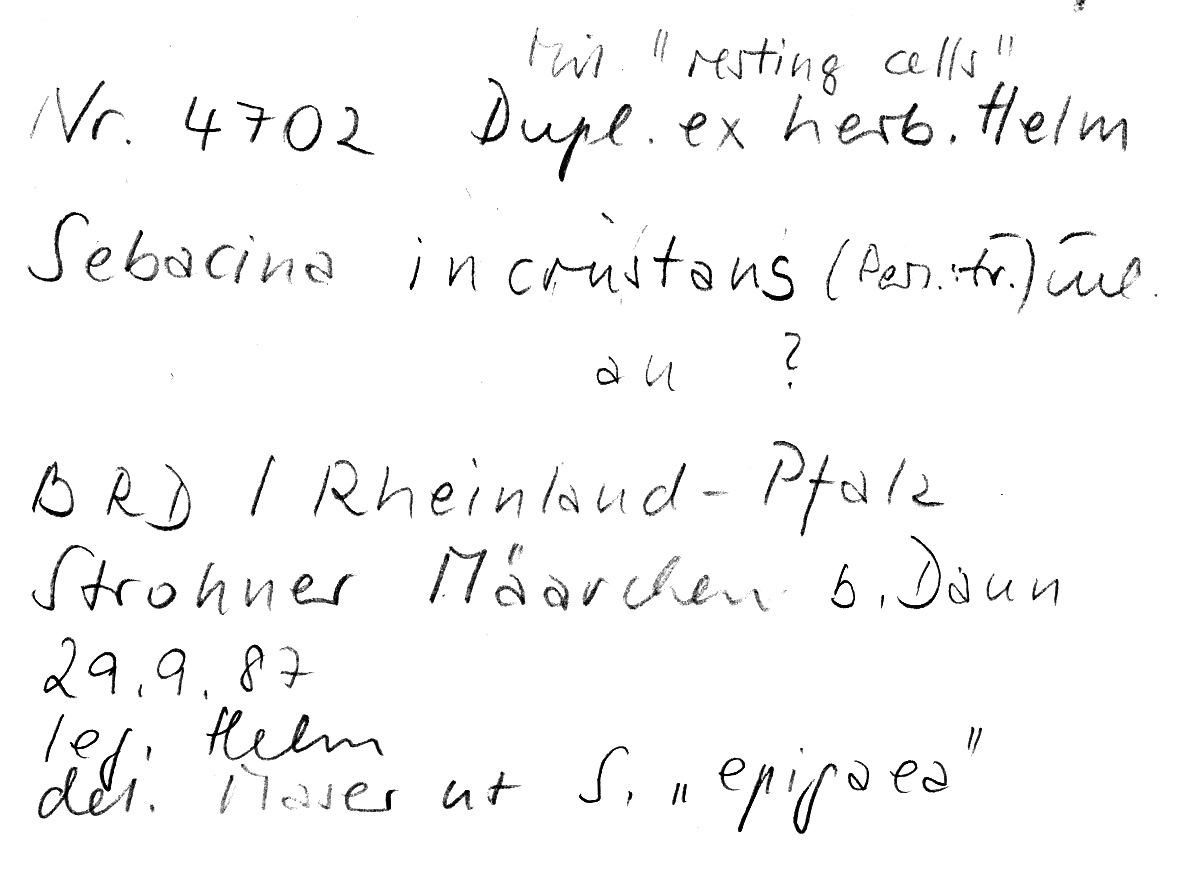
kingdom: Fungi
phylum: Basidiomycota
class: Agaricomycetes
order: Sebacinales
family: Sebacinaceae
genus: Sebacina
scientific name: Sebacina incrustans
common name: Enveloping crust
